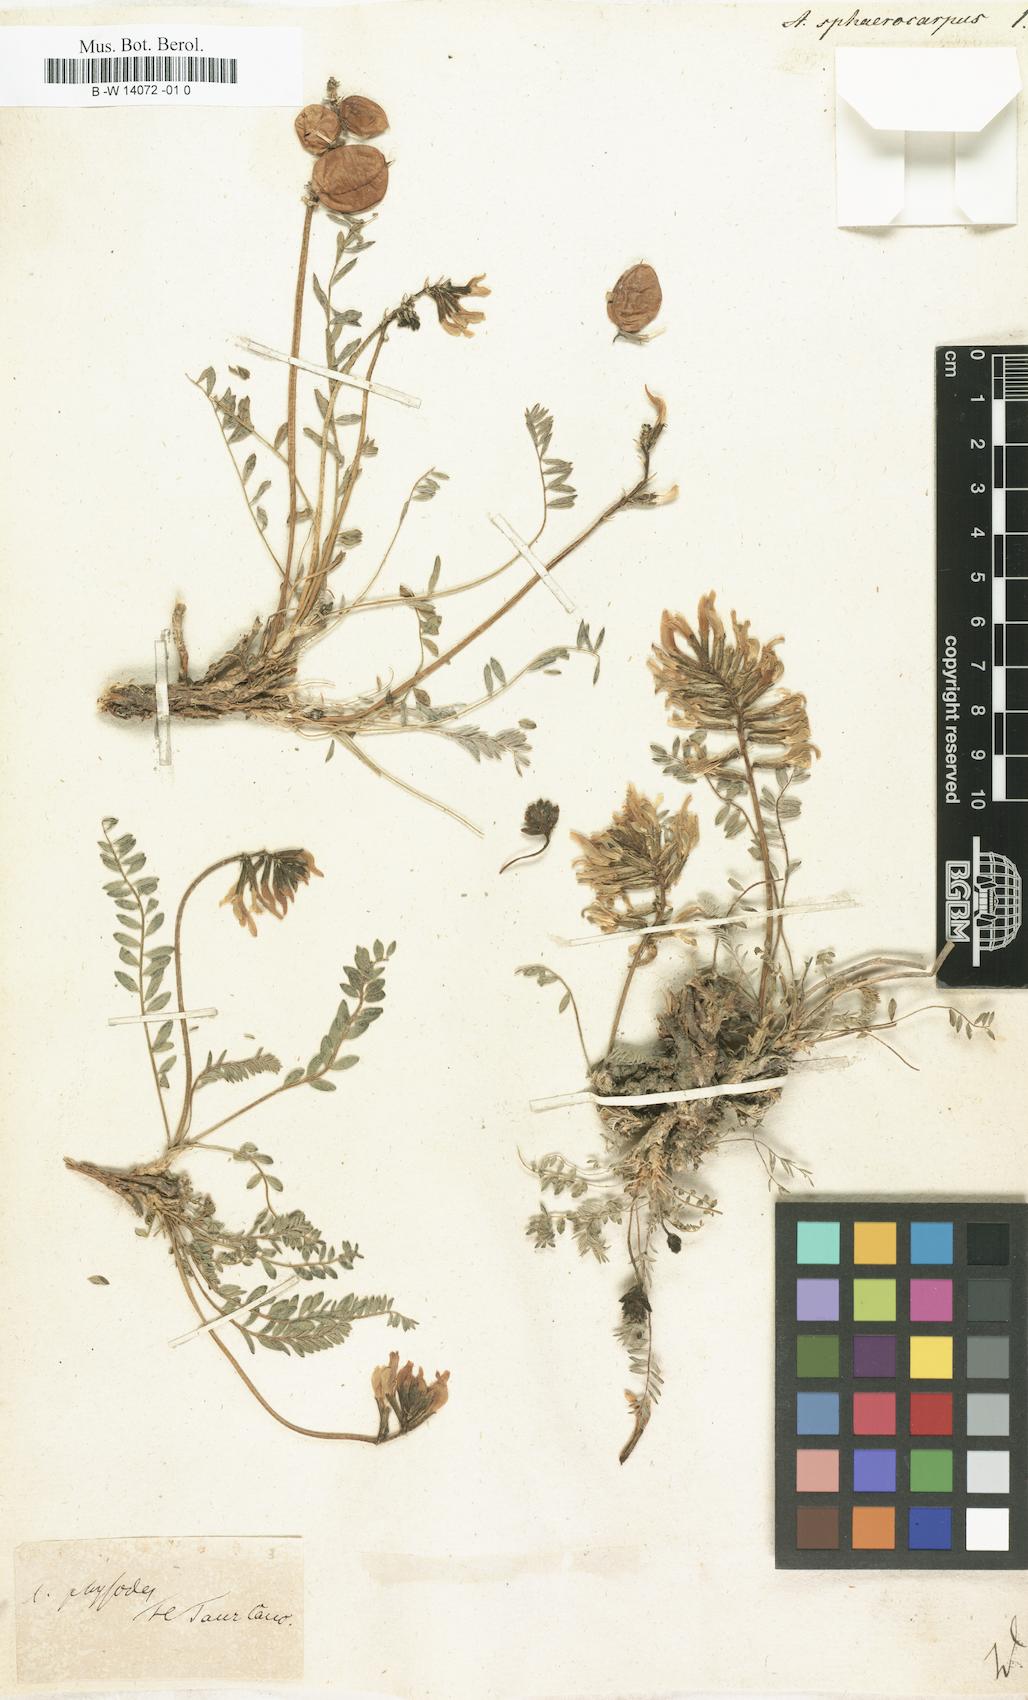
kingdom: Plantae
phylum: Tracheophyta
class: Magnoliopsida
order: Fabales
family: Fabaceae
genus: Astragalus
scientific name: Astragalus sphaerocarpus
